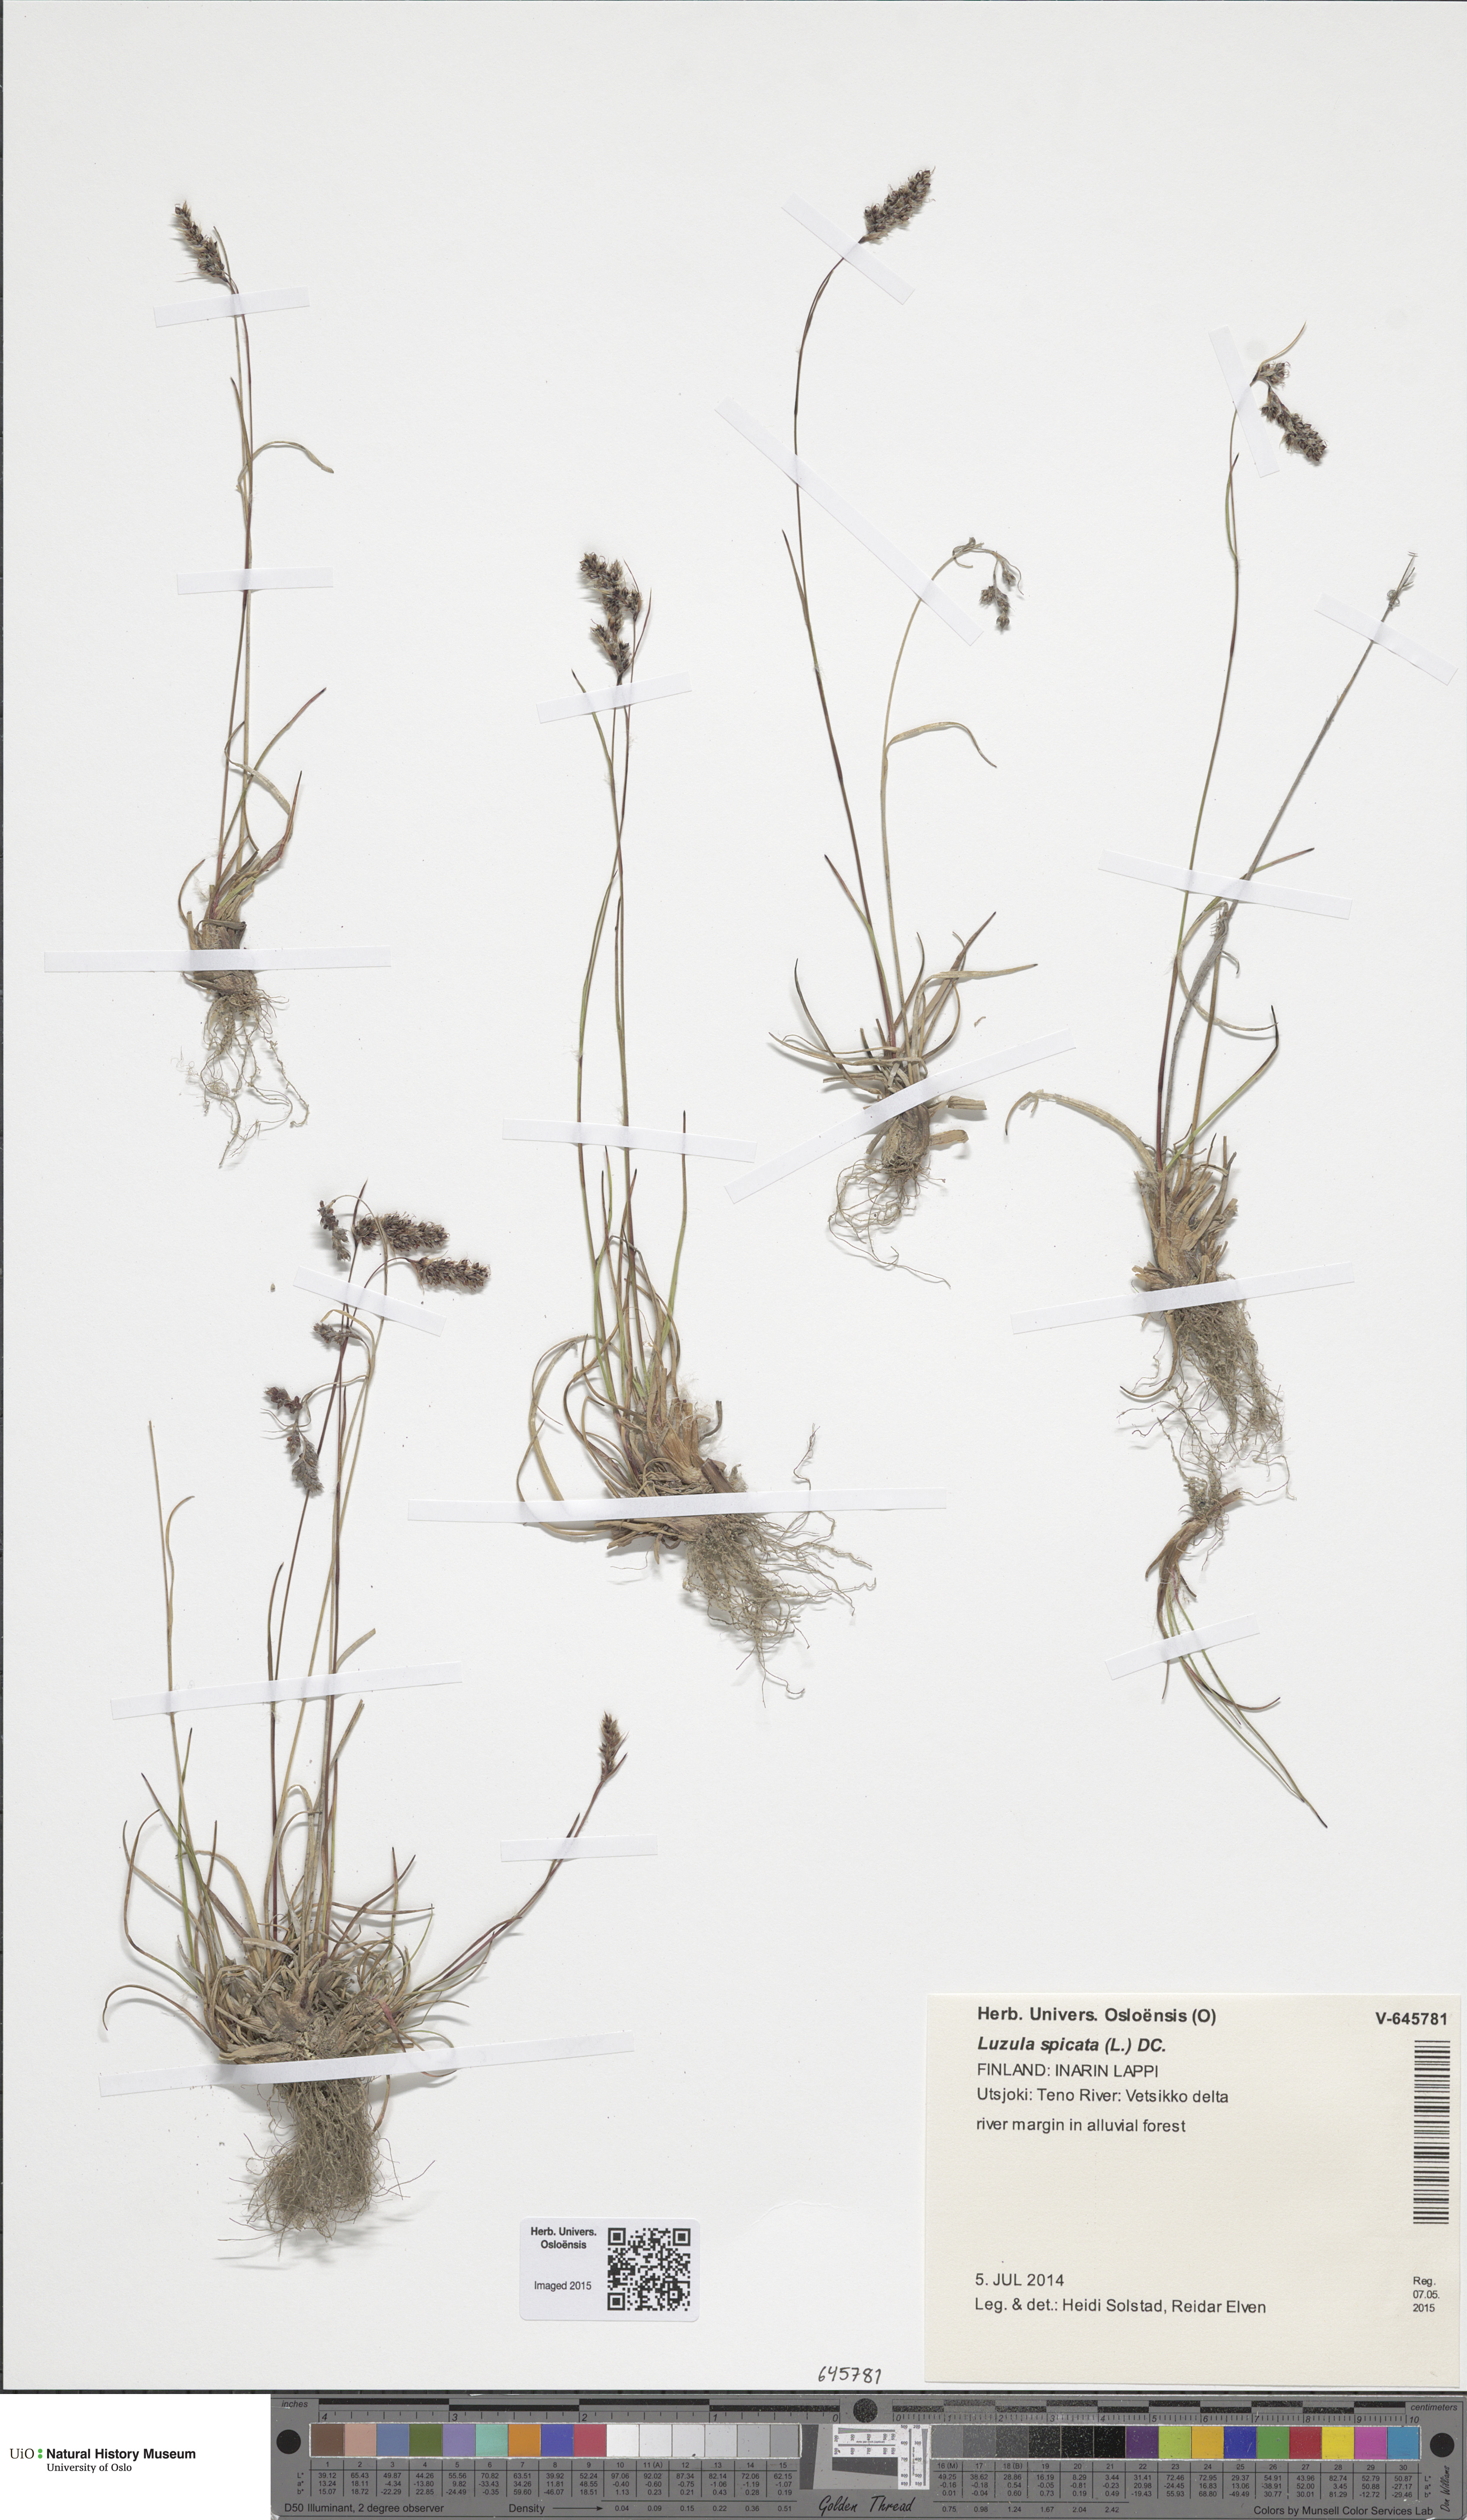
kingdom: Plantae
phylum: Tracheophyta
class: Liliopsida
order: Poales
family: Juncaceae
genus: Luzula
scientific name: Luzula spicata
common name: Spiked wood-rush
